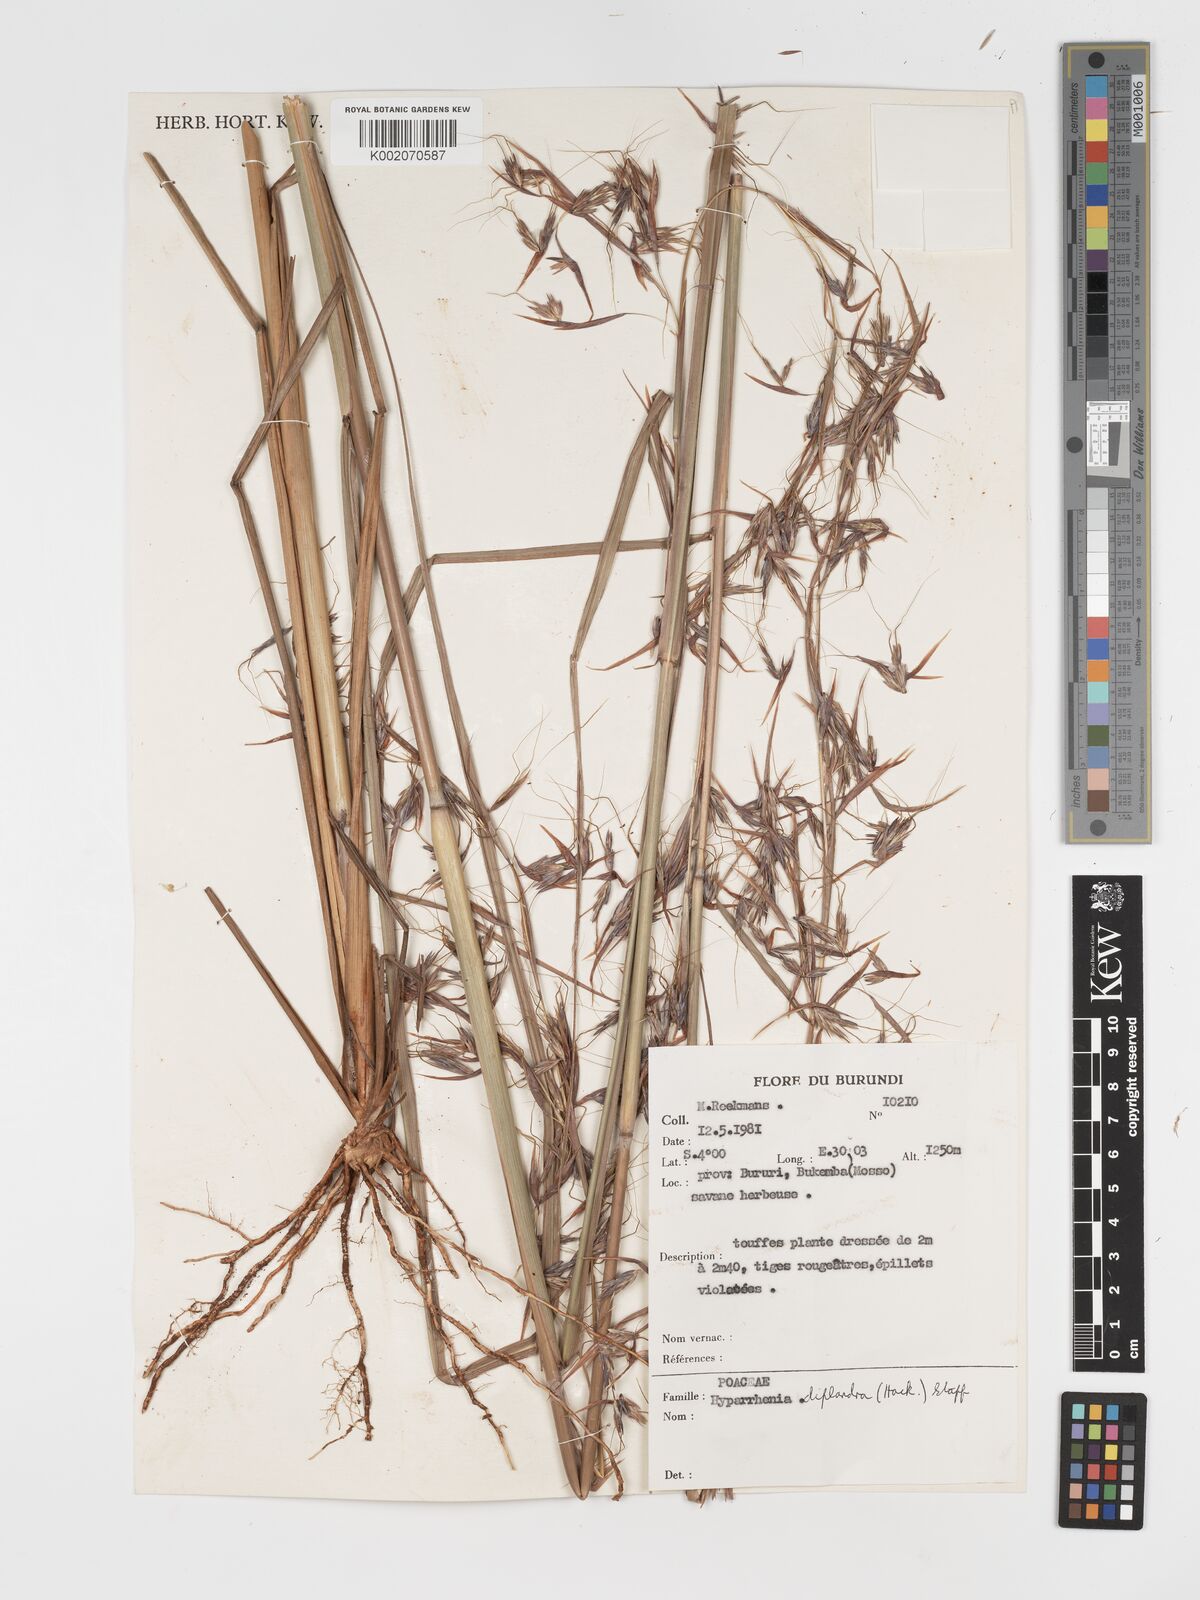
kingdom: Plantae
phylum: Tracheophyta
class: Liliopsida
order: Poales
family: Poaceae
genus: Hyparrhenia
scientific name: Hyparrhenia diplandra
